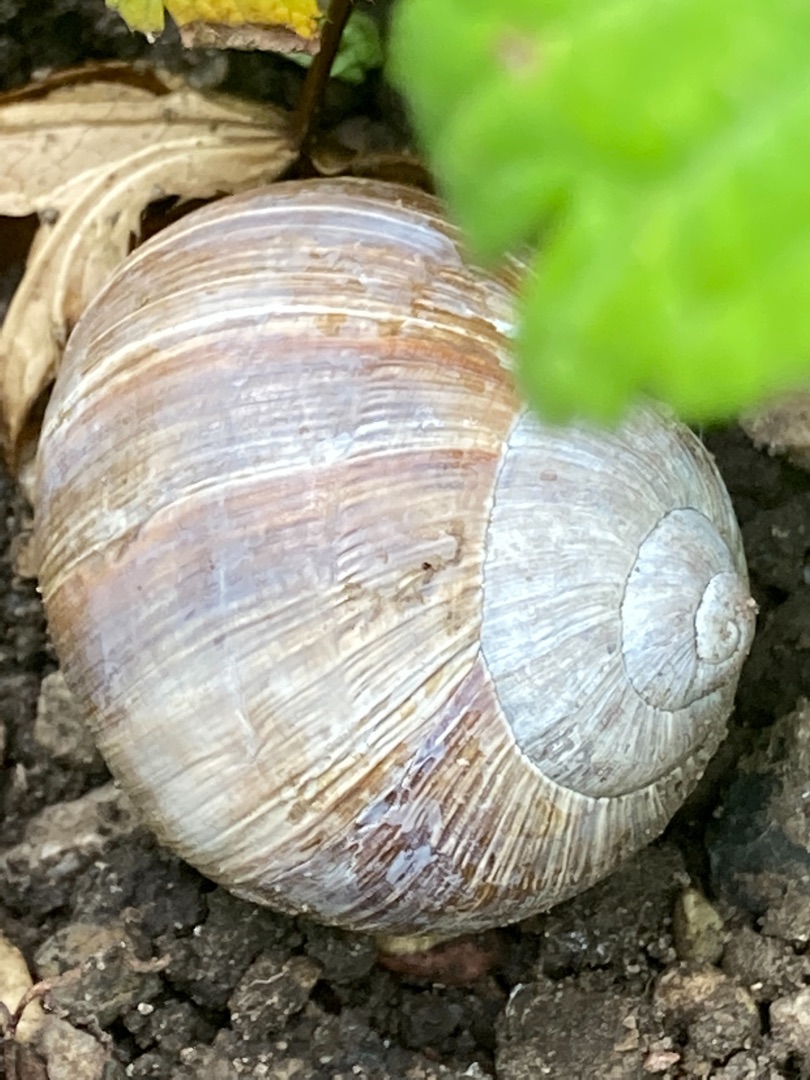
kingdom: Animalia
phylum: Mollusca
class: Gastropoda
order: Stylommatophora
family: Helicidae
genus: Helix
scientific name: Helix pomatia
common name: Vinbjergsnegl
